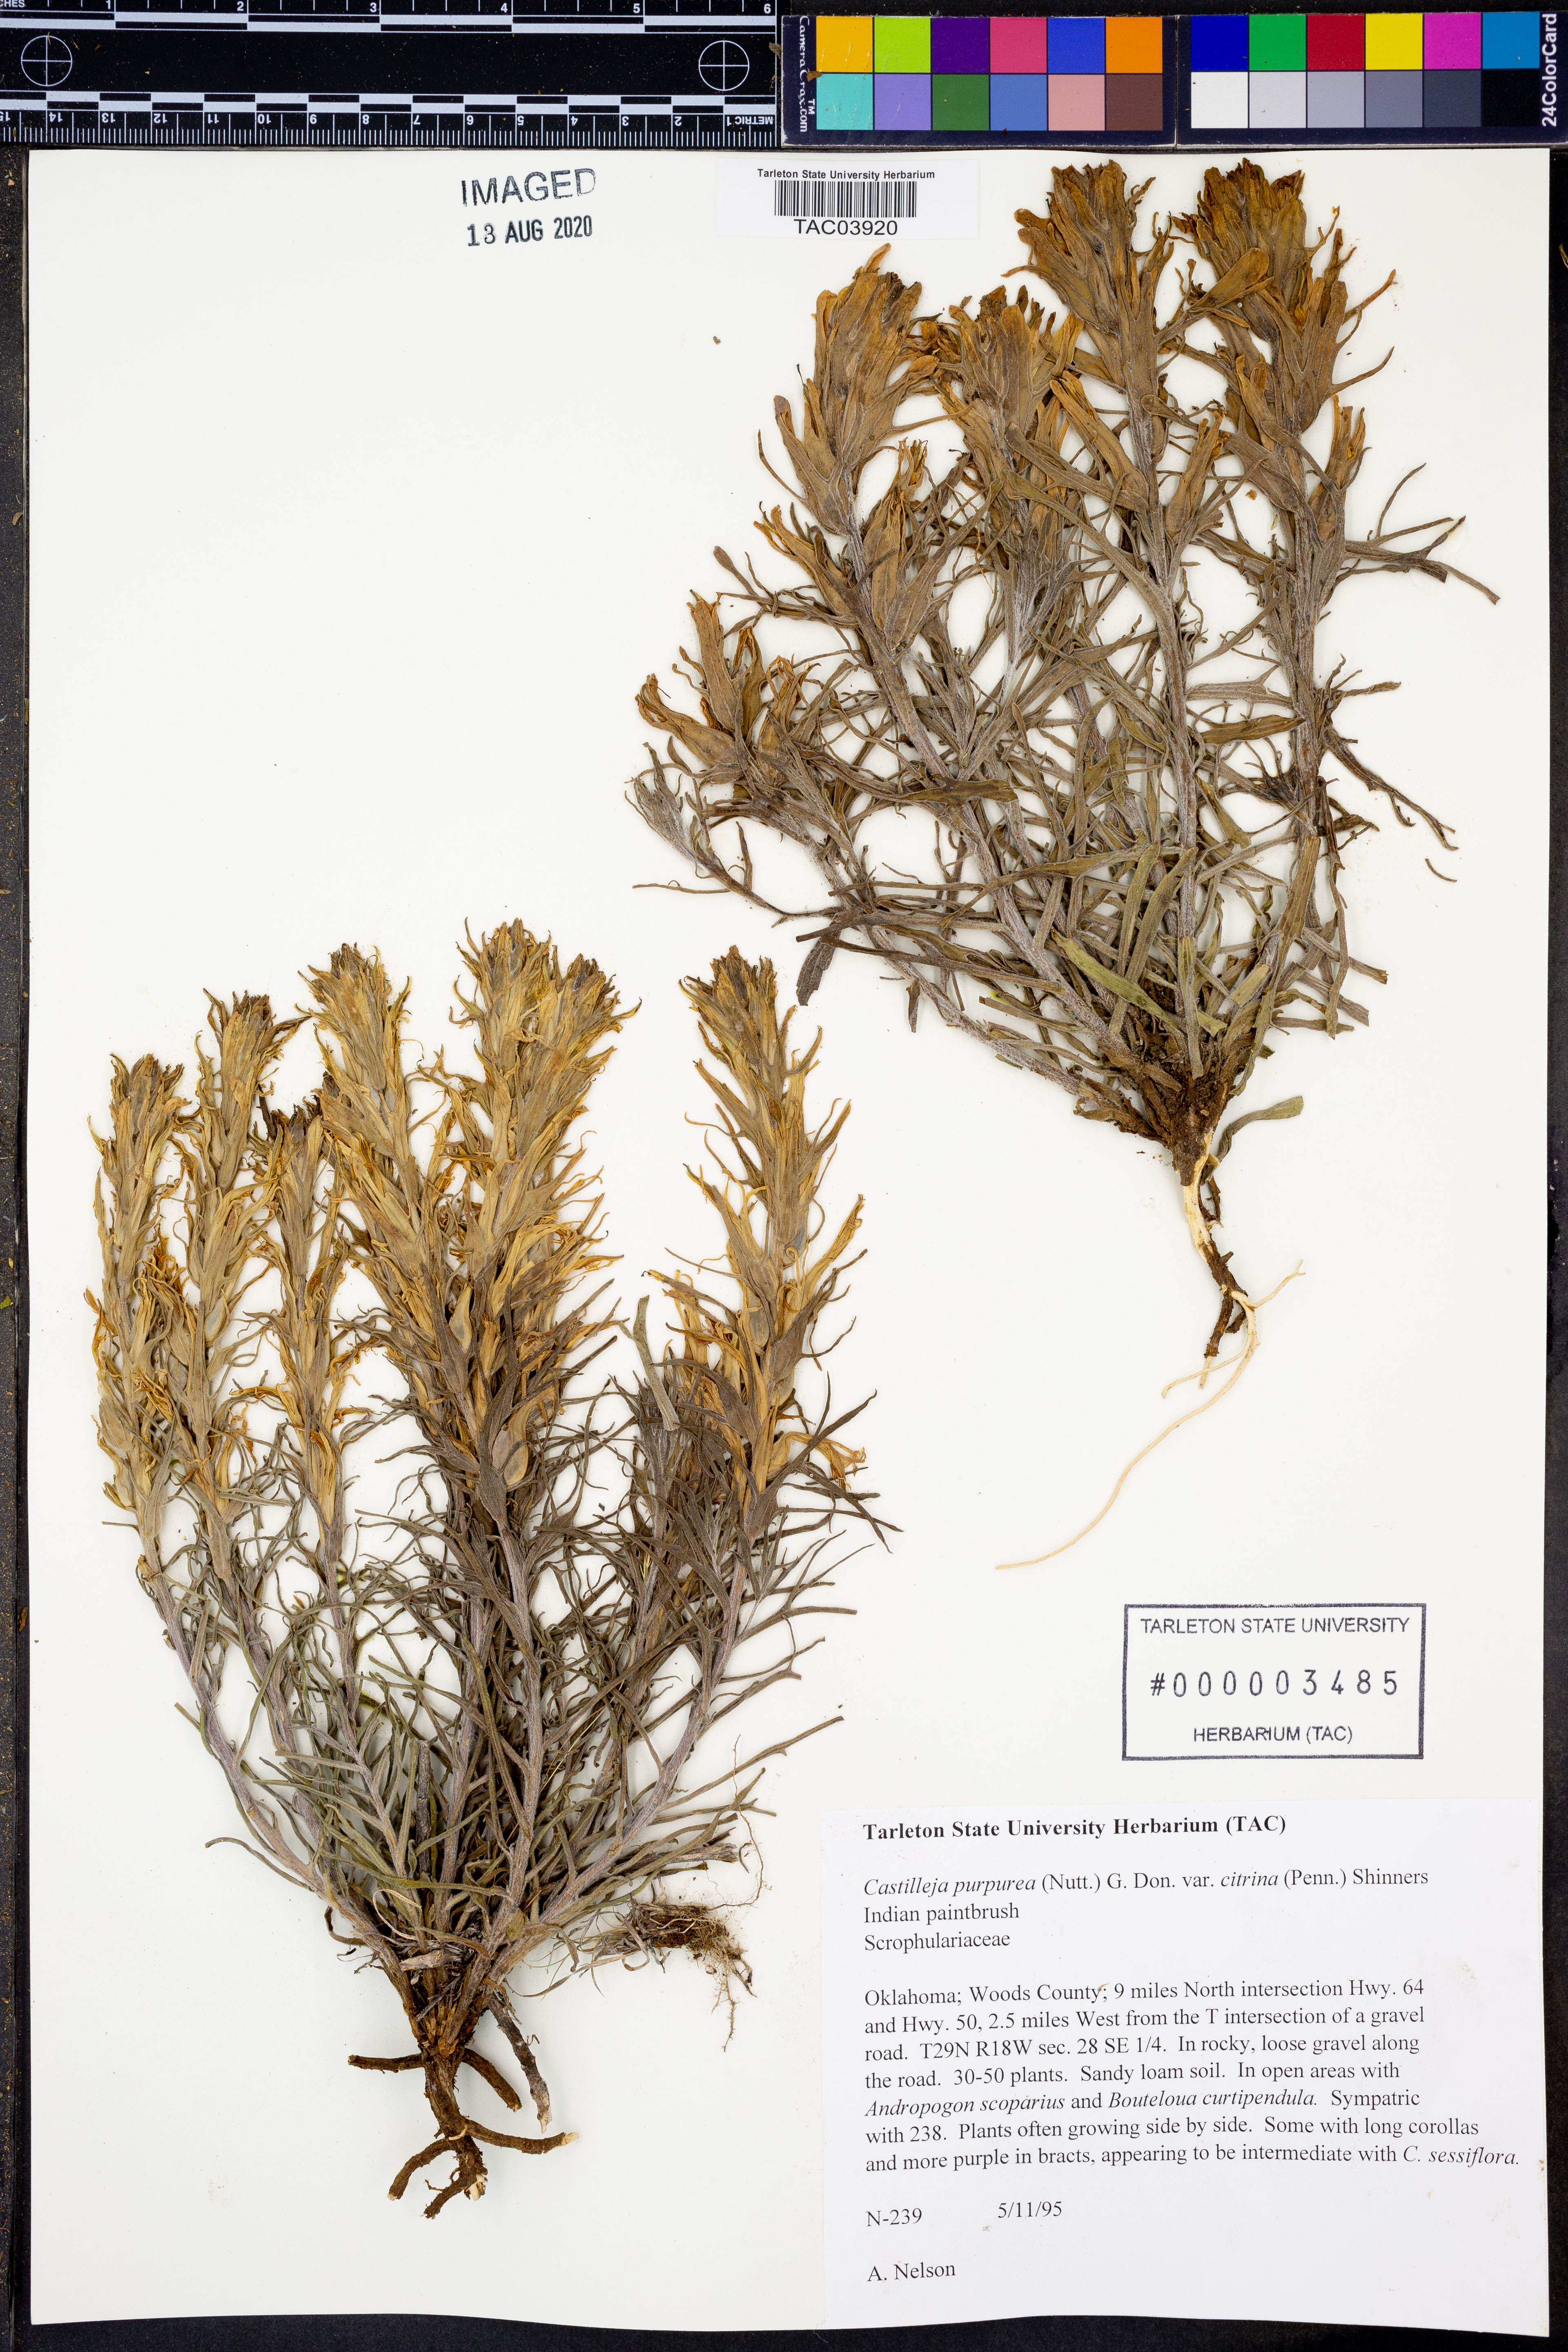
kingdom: Plantae
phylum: Tracheophyta
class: Magnoliopsida
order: Lamiales
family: Orobanchaceae
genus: Castilleja
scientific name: Castilleja citrina
